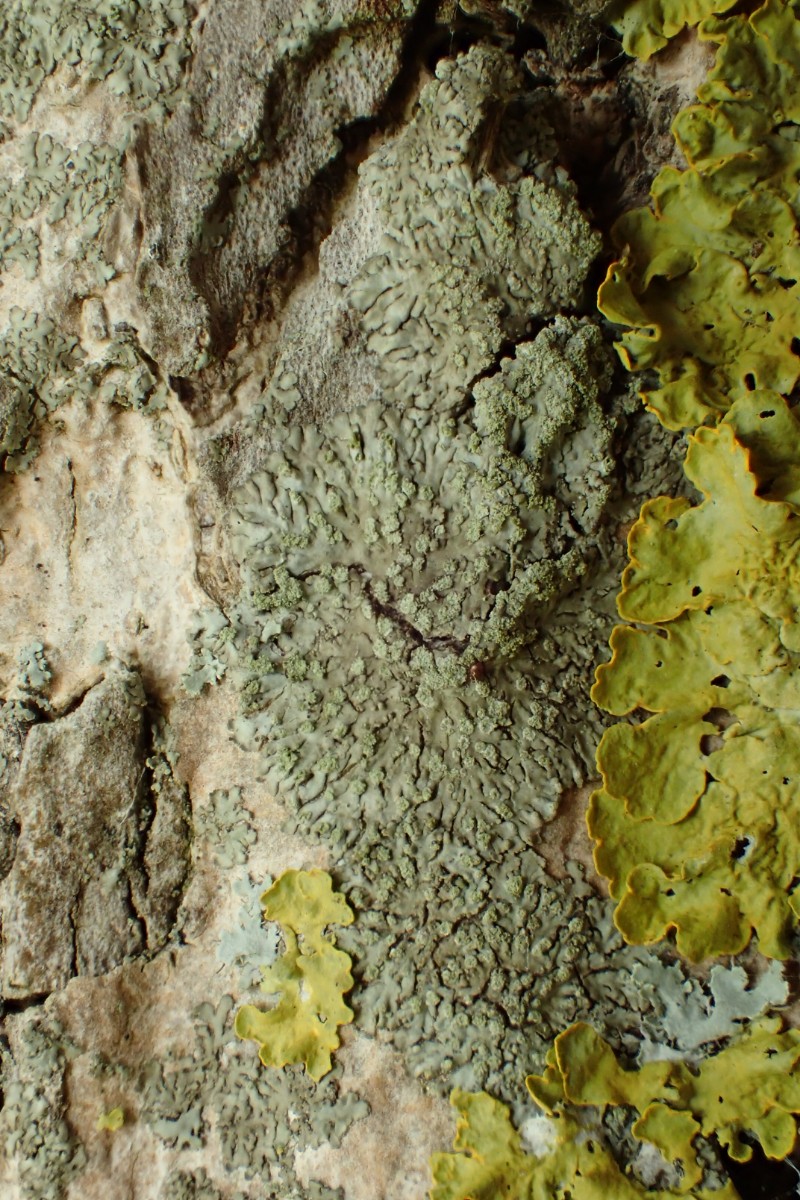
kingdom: Fungi
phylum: Ascomycota
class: Lecanoromycetes
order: Caliciales
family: Physciaceae
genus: Hyperphyscia
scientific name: Hyperphyscia adglutinata
